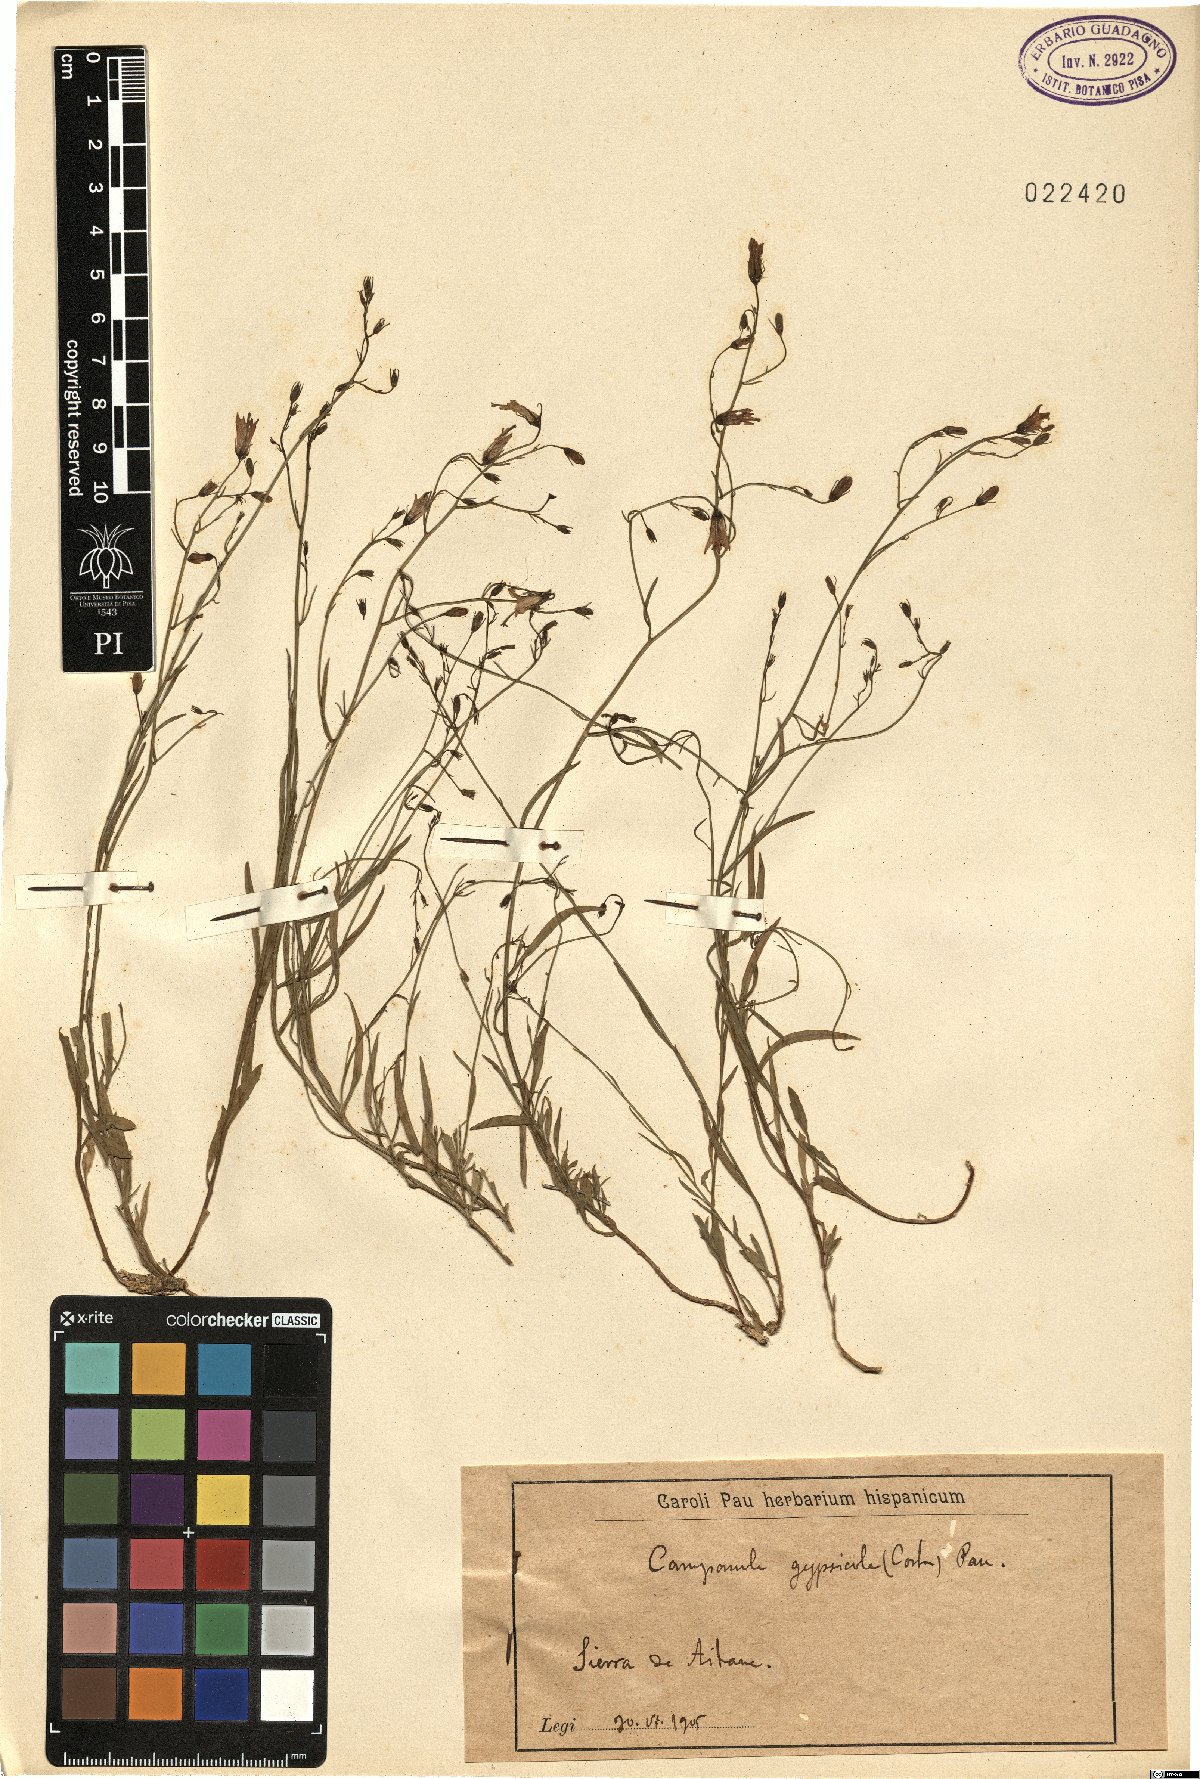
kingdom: Plantae
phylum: Tracheophyta
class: Magnoliopsida
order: Asterales
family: Campanulaceae
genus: Campanula
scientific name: Campanula macrorhiza
